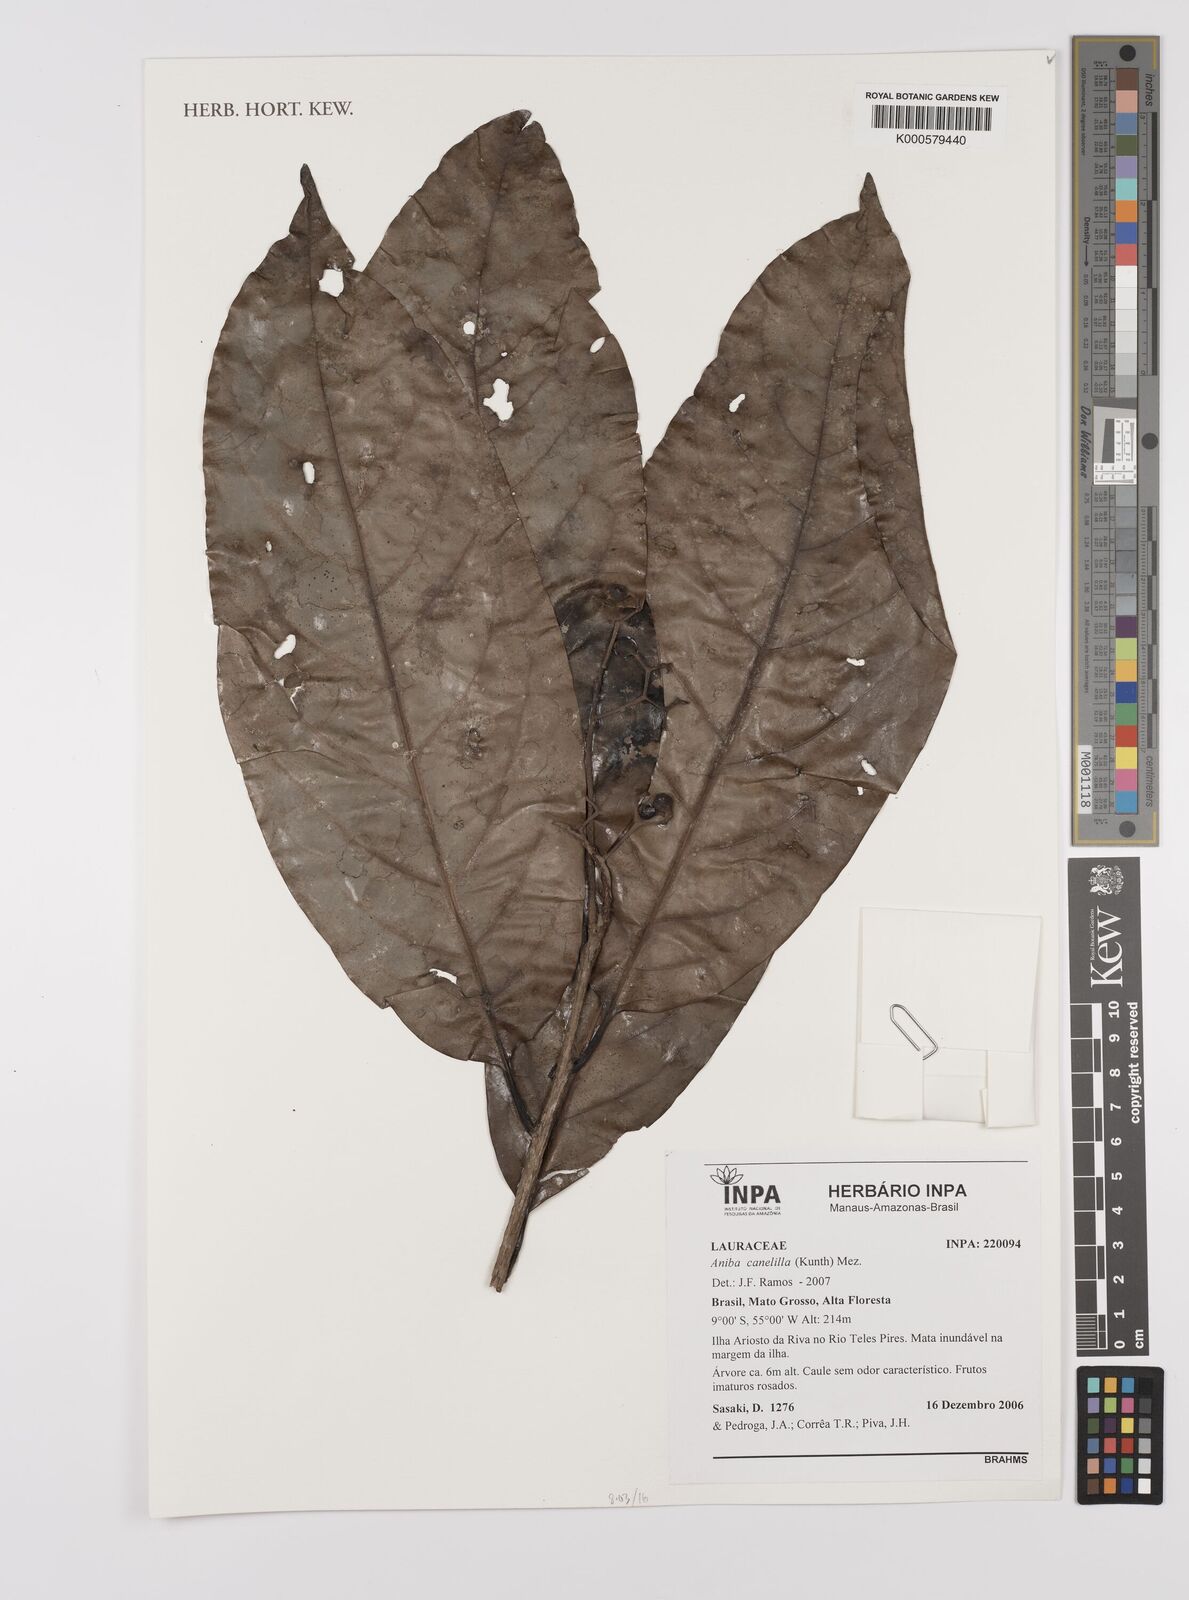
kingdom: Plantae
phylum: Tracheophyta
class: Magnoliopsida
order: Laurales
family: Lauraceae
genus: Aniba
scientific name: Aniba canelilla
